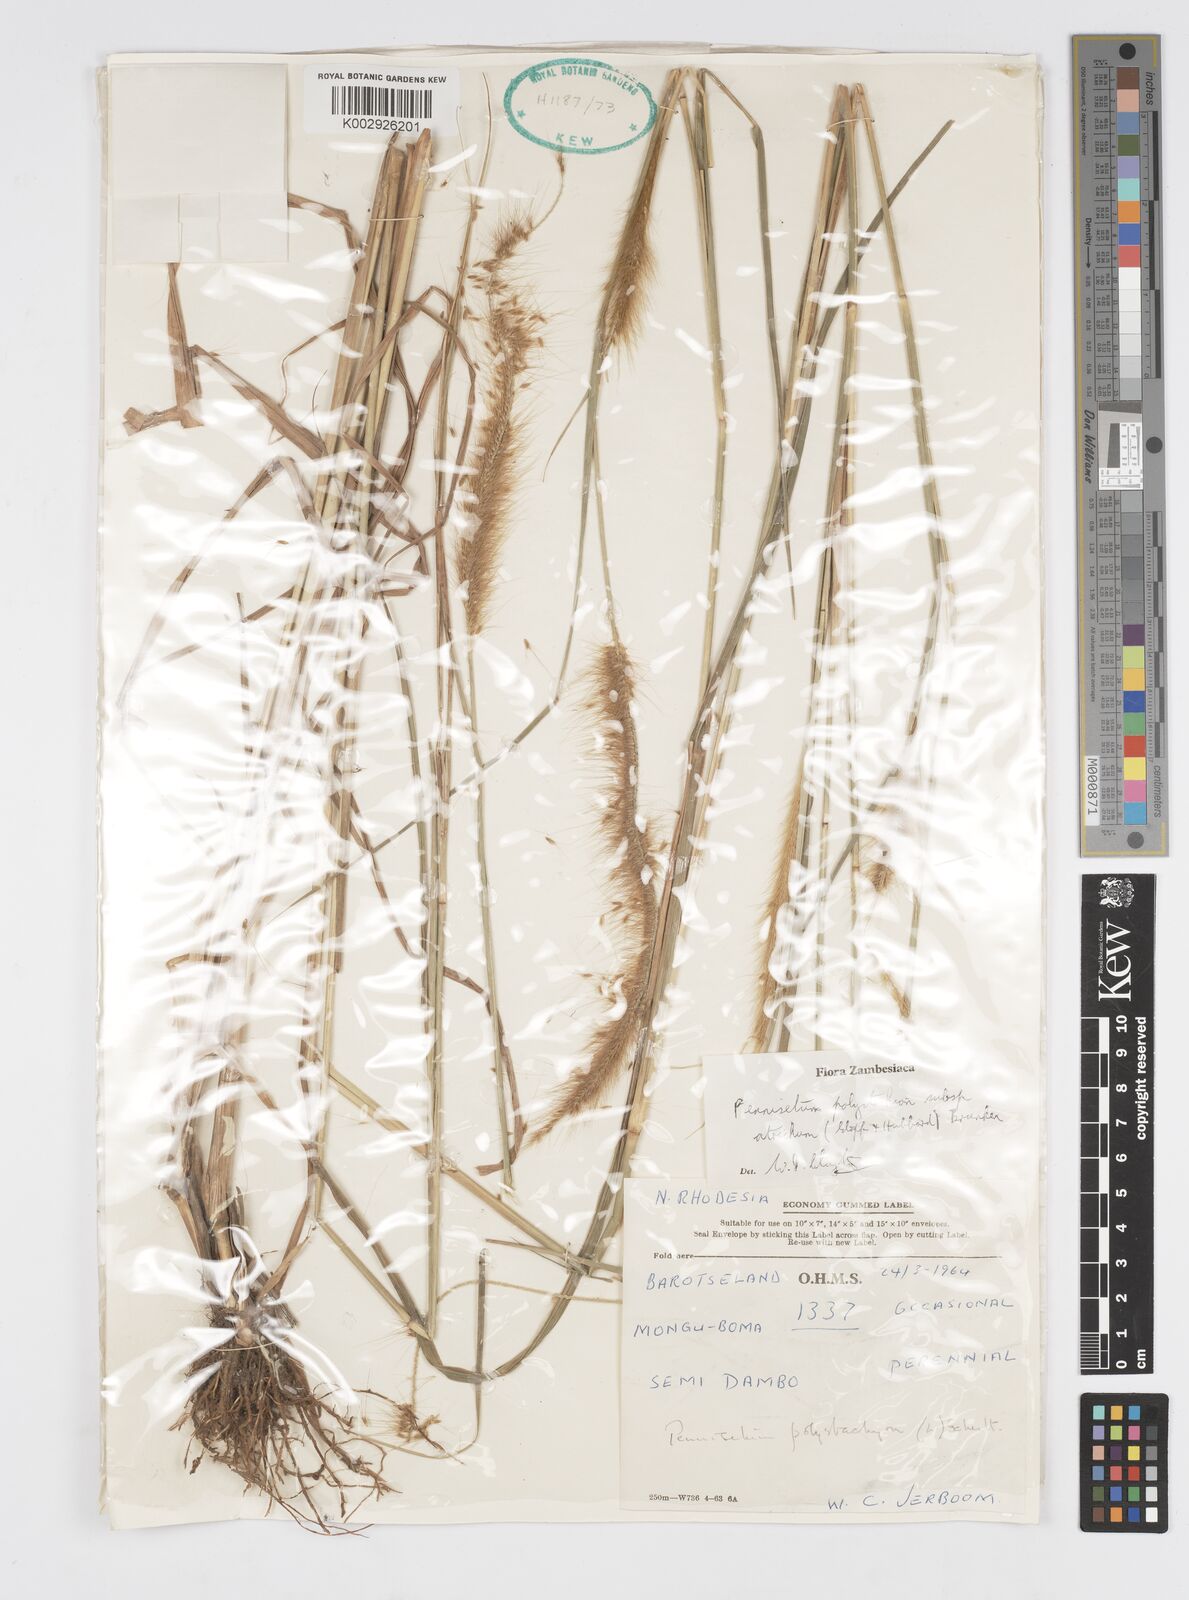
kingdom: Plantae
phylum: Tracheophyta
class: Liliopsida
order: Poales
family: Poaceae
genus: Cenchrus
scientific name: Cenchrus setosus
